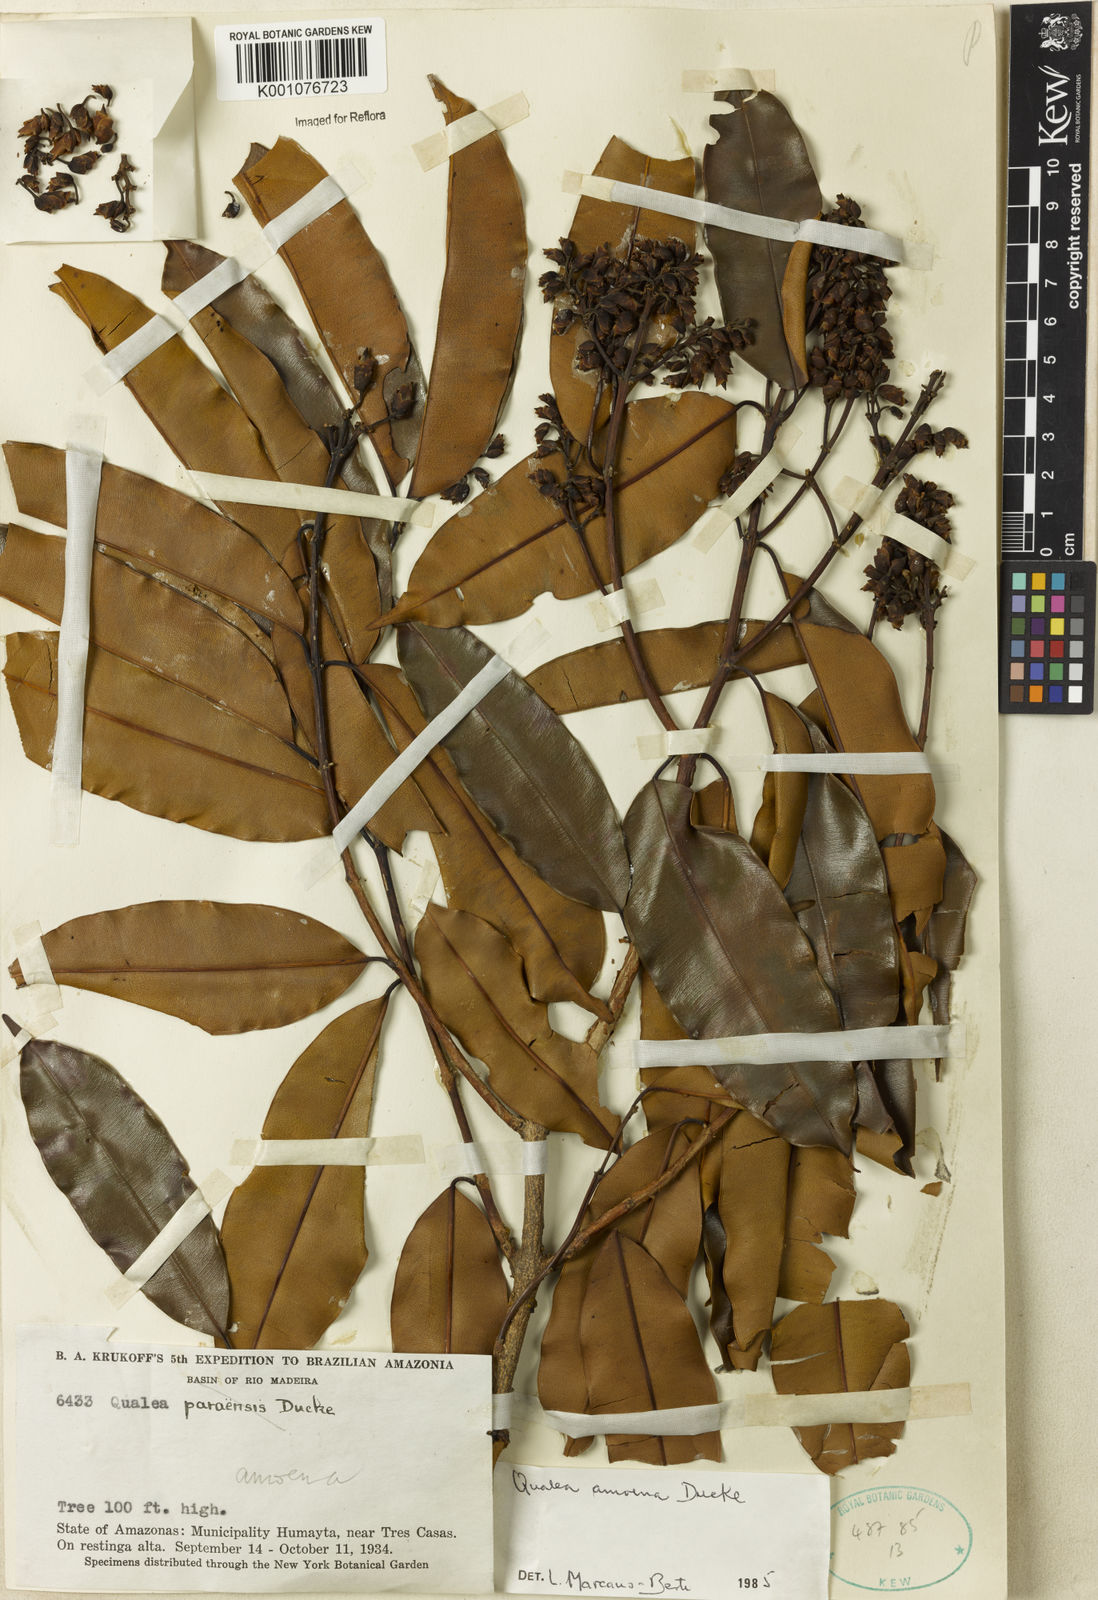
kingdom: Plantae
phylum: Tracheophyta
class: Magnoliopsida
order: Myrtales
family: Vochysiaceae
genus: Qualea
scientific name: Qualea amoena
